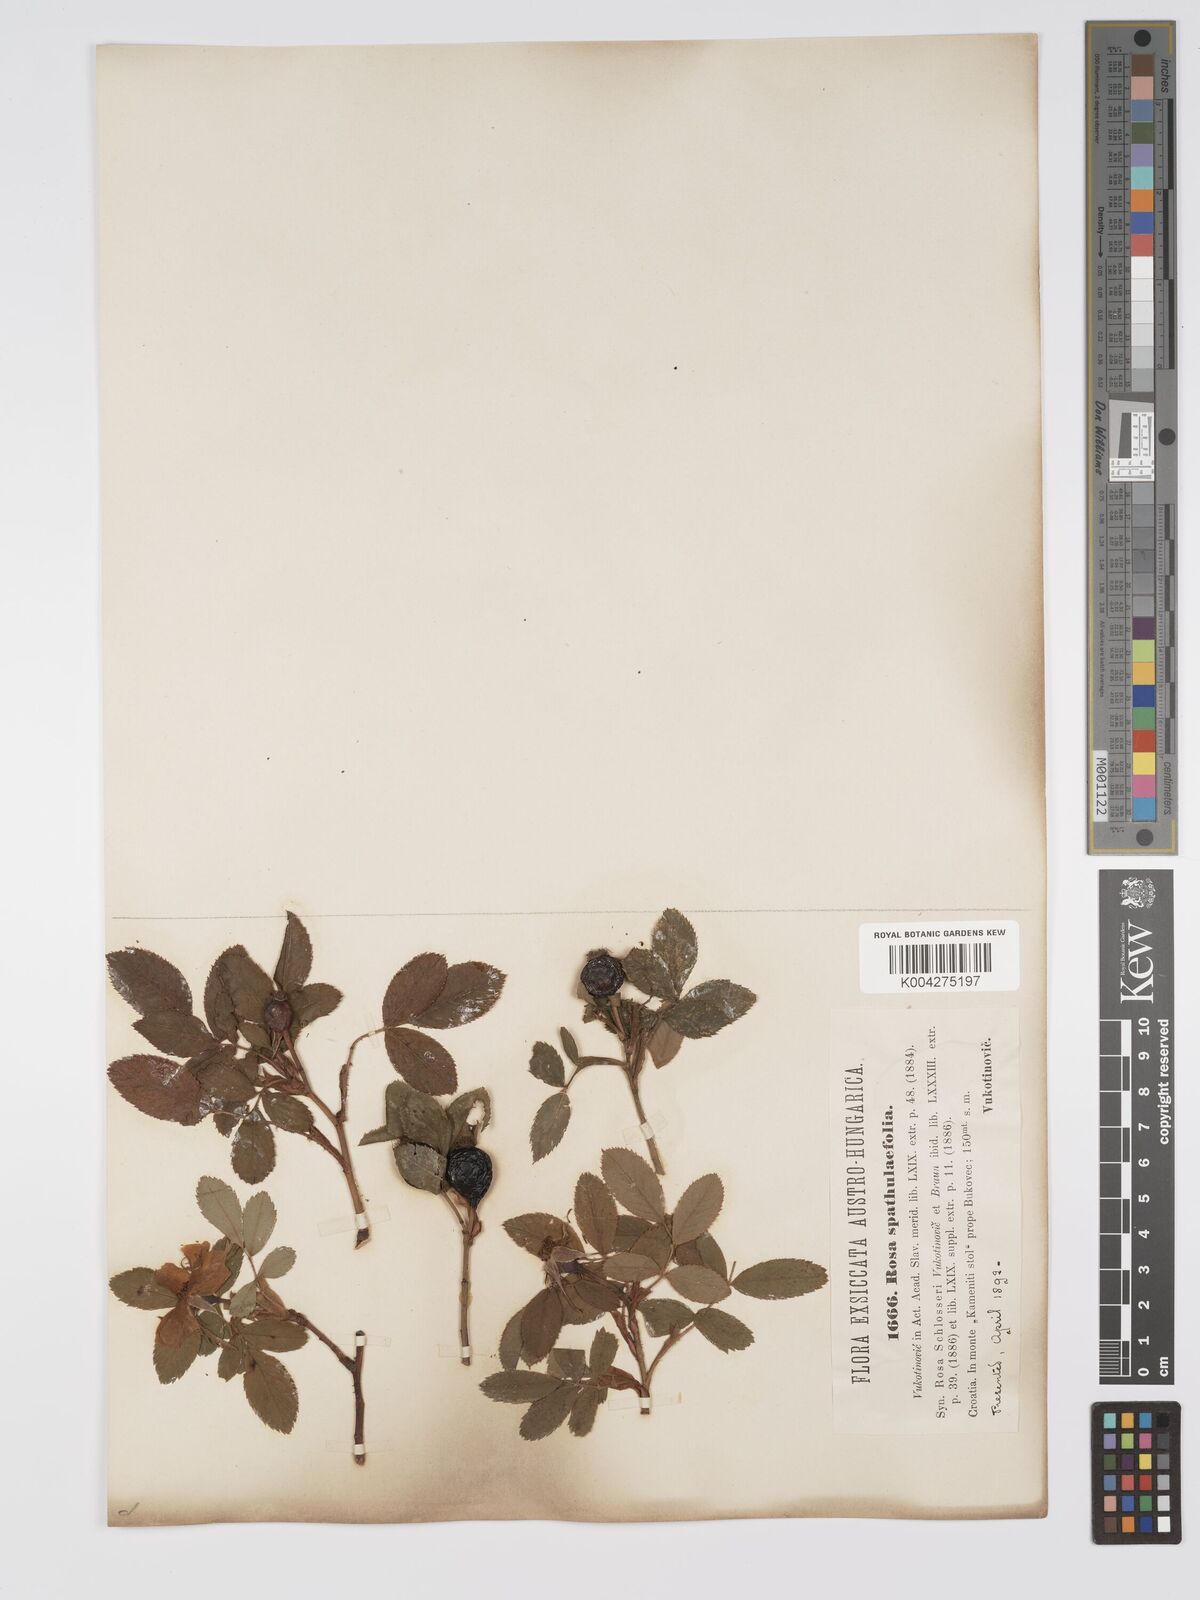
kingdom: Plantae
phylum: Tracheophyta
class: Magnoliopsida
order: Rosales
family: Rosaceae
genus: Rosa
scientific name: Rosa
